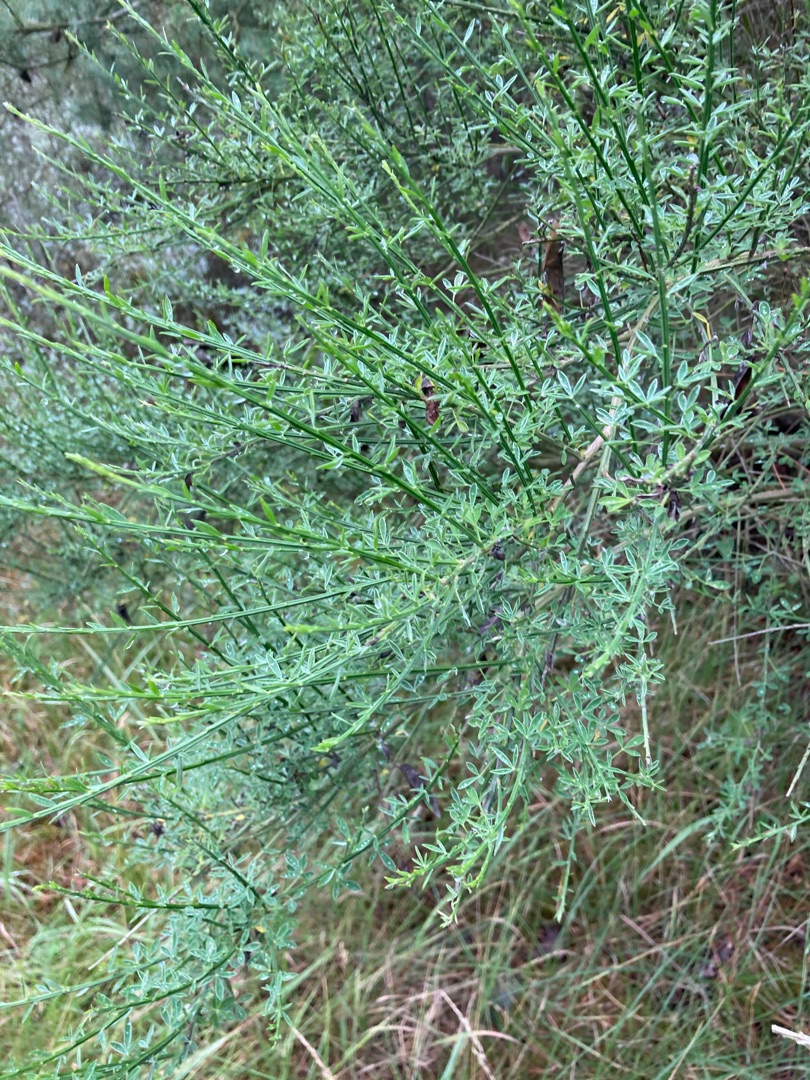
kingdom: Plantae
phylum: Tracheophyta
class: Magnoliopsida
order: Fabales
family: Fabaceae
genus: Cytisus
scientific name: Cytisus scoparius
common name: Almindelig gyvel
